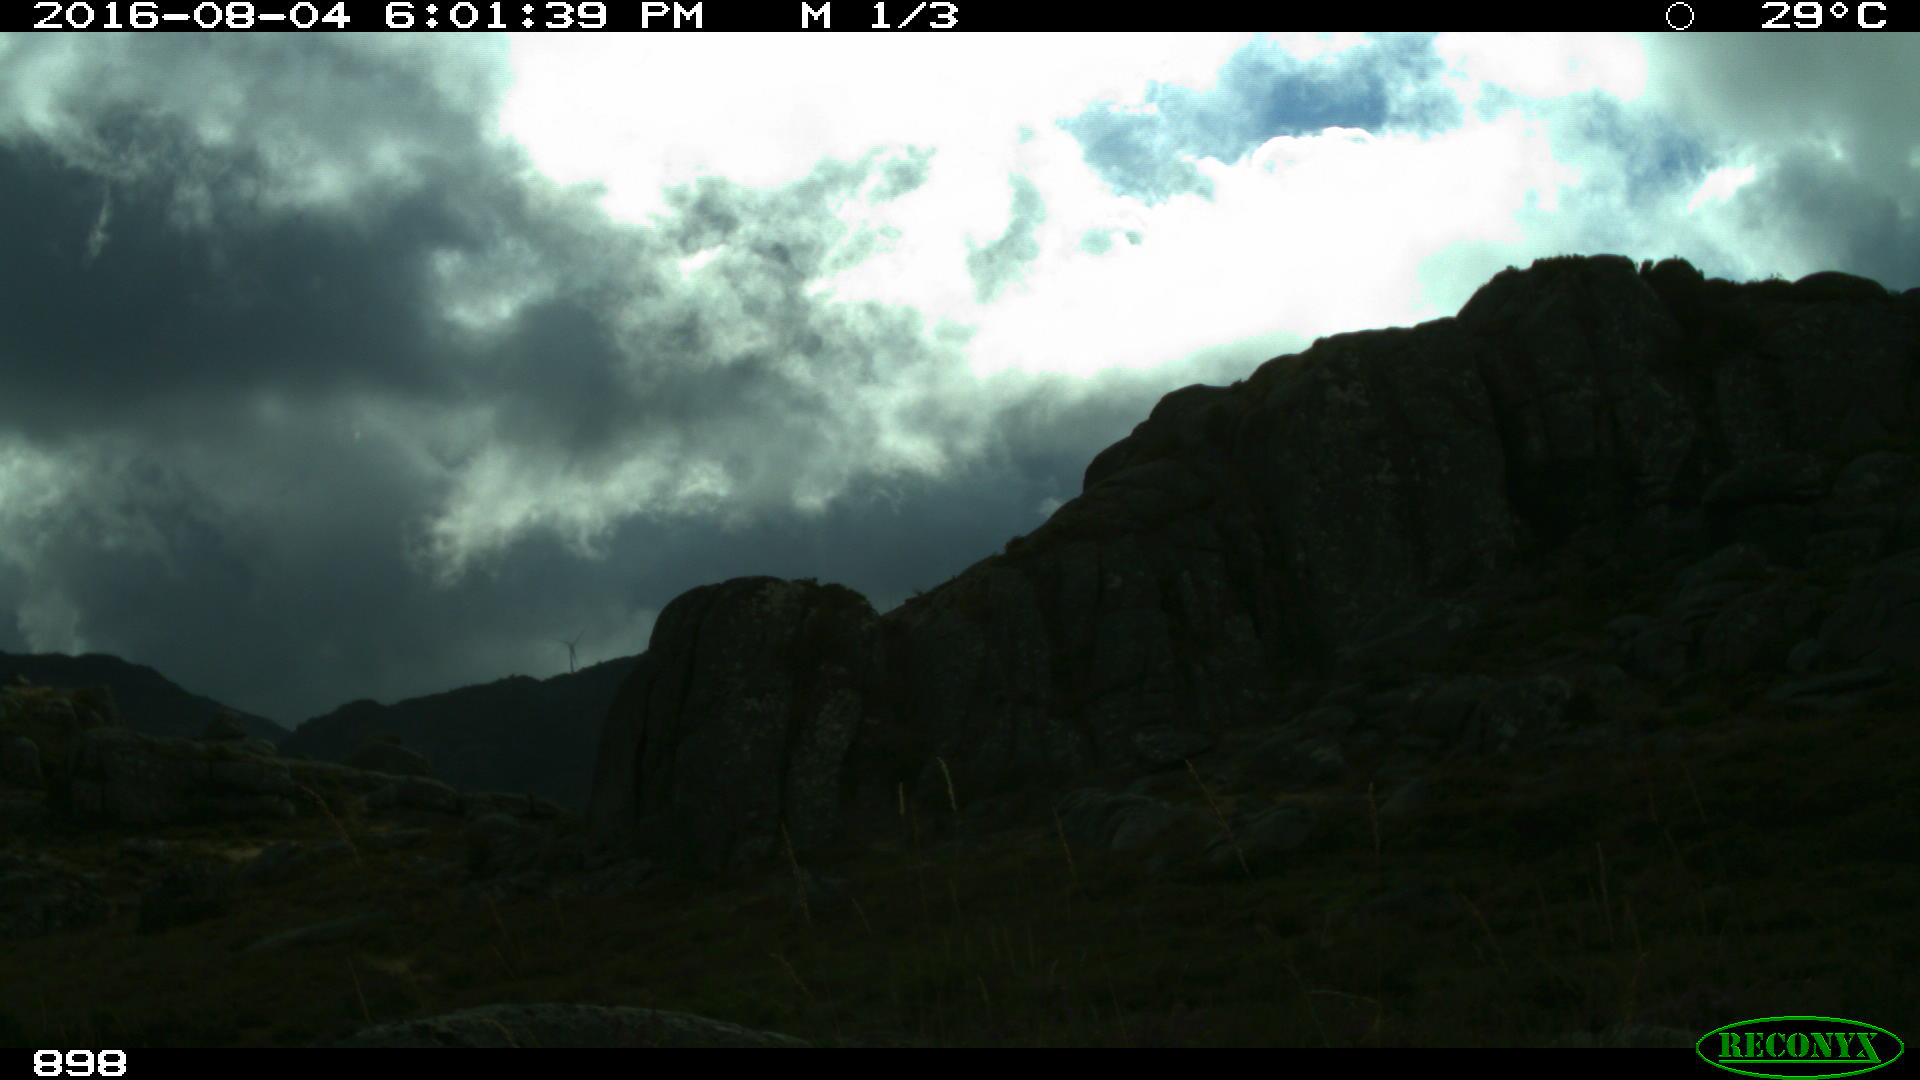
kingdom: Animalia
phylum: Chordata
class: Mammalia
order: Perissodactyla
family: Equidae
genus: Equus
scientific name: Equus caballus
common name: Horse
